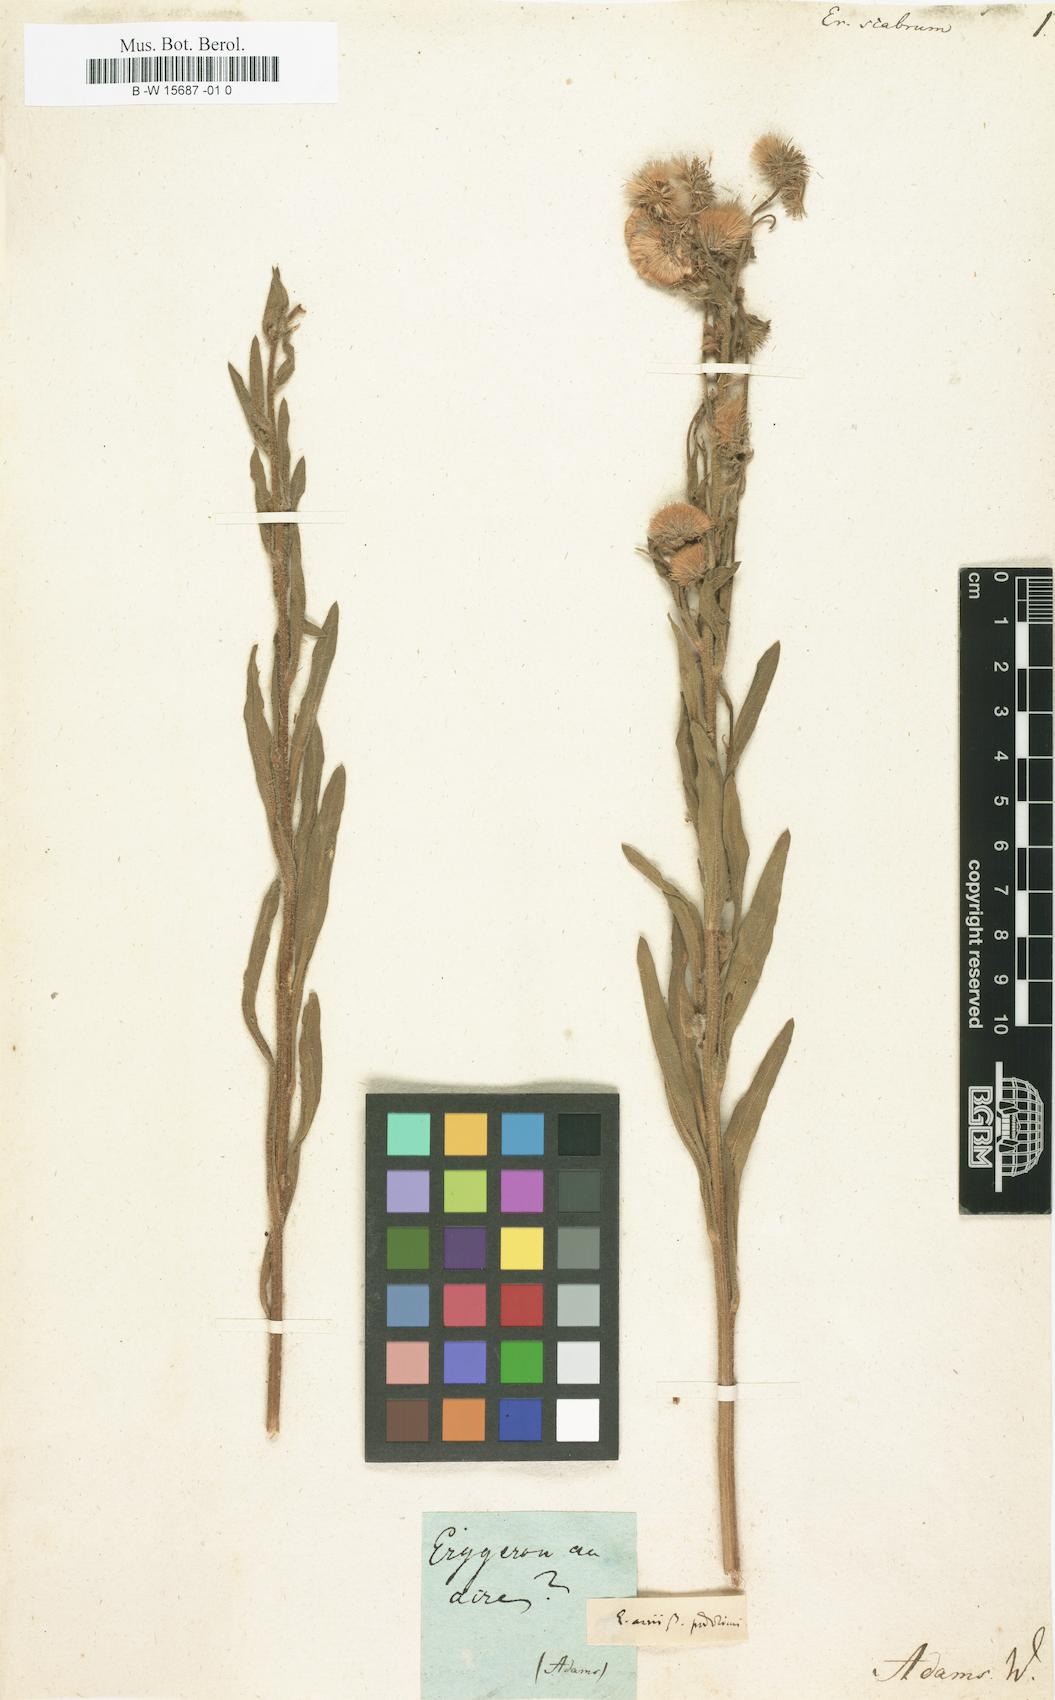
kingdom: Plantae
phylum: Tracheophyta
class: Magnoliopsida
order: Asterales
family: Asteraceae
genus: Pulicaria
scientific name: Pulicaria scabra
